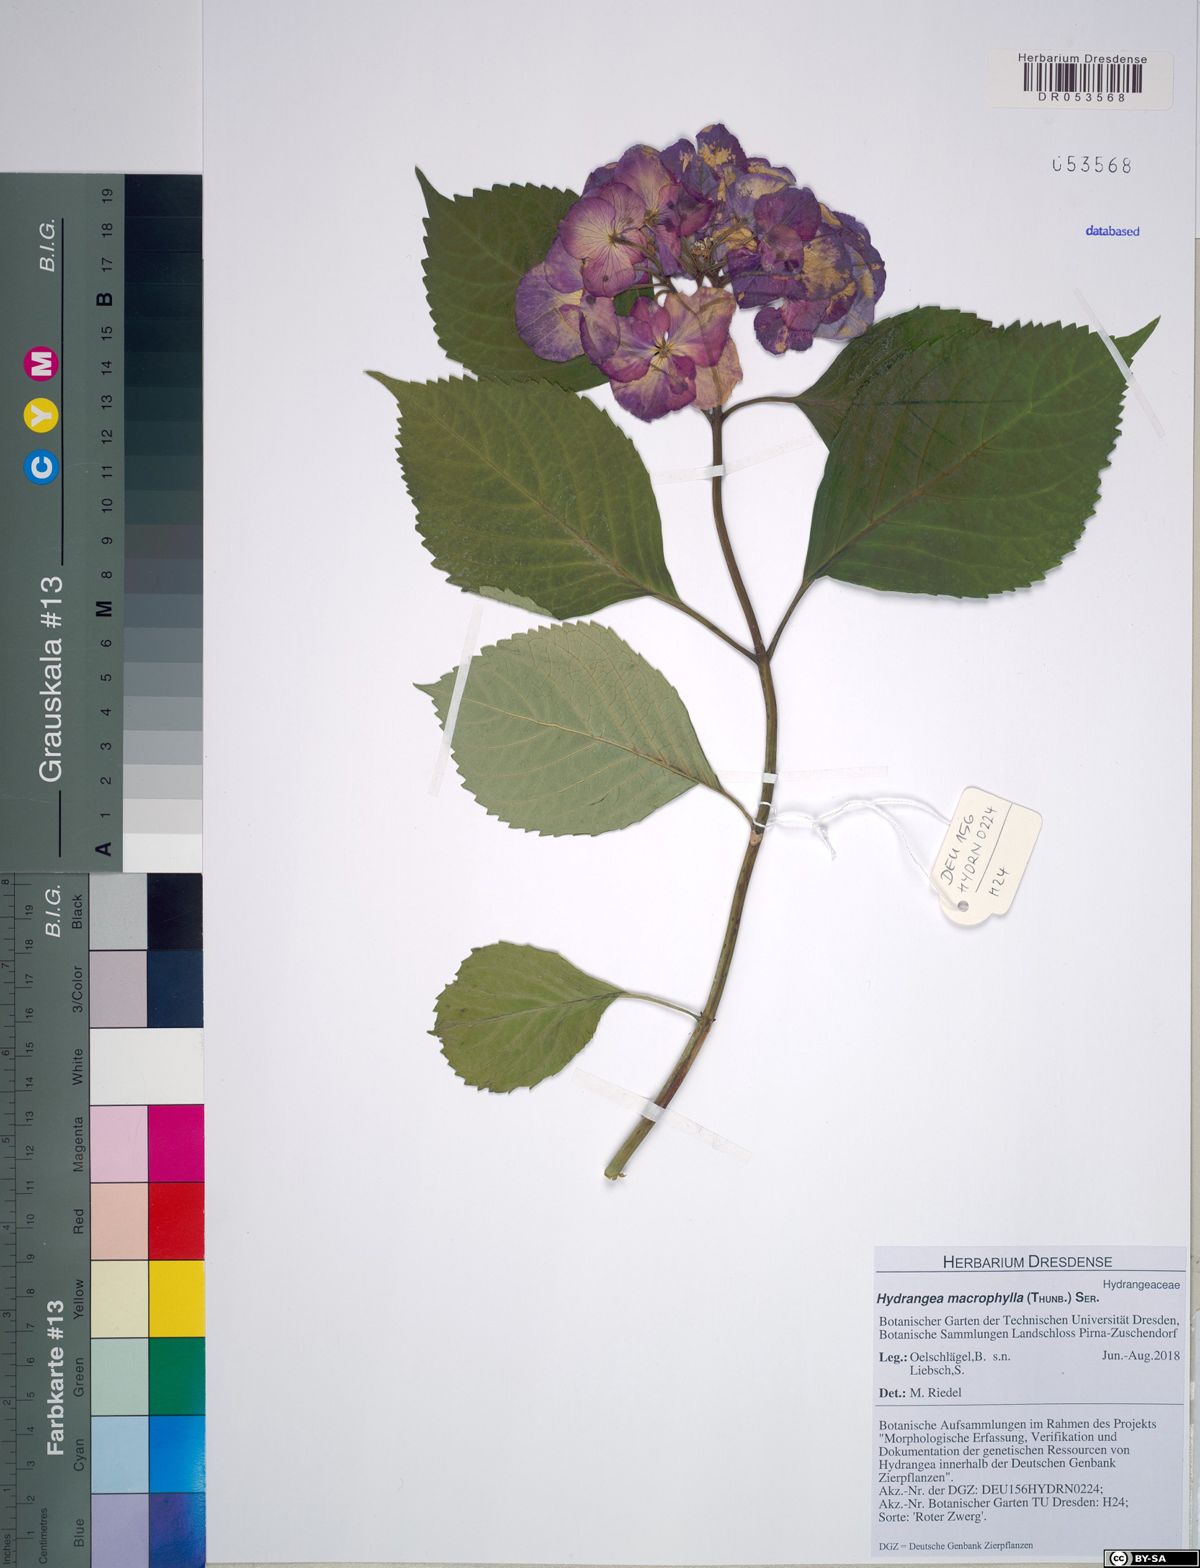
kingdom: Plantae
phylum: Tracheophyta
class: Magnoliopsida
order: Cornales
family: Hydrangeaceae
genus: Hydrangea
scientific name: Hydrangea macrophylla
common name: Hydrangea
